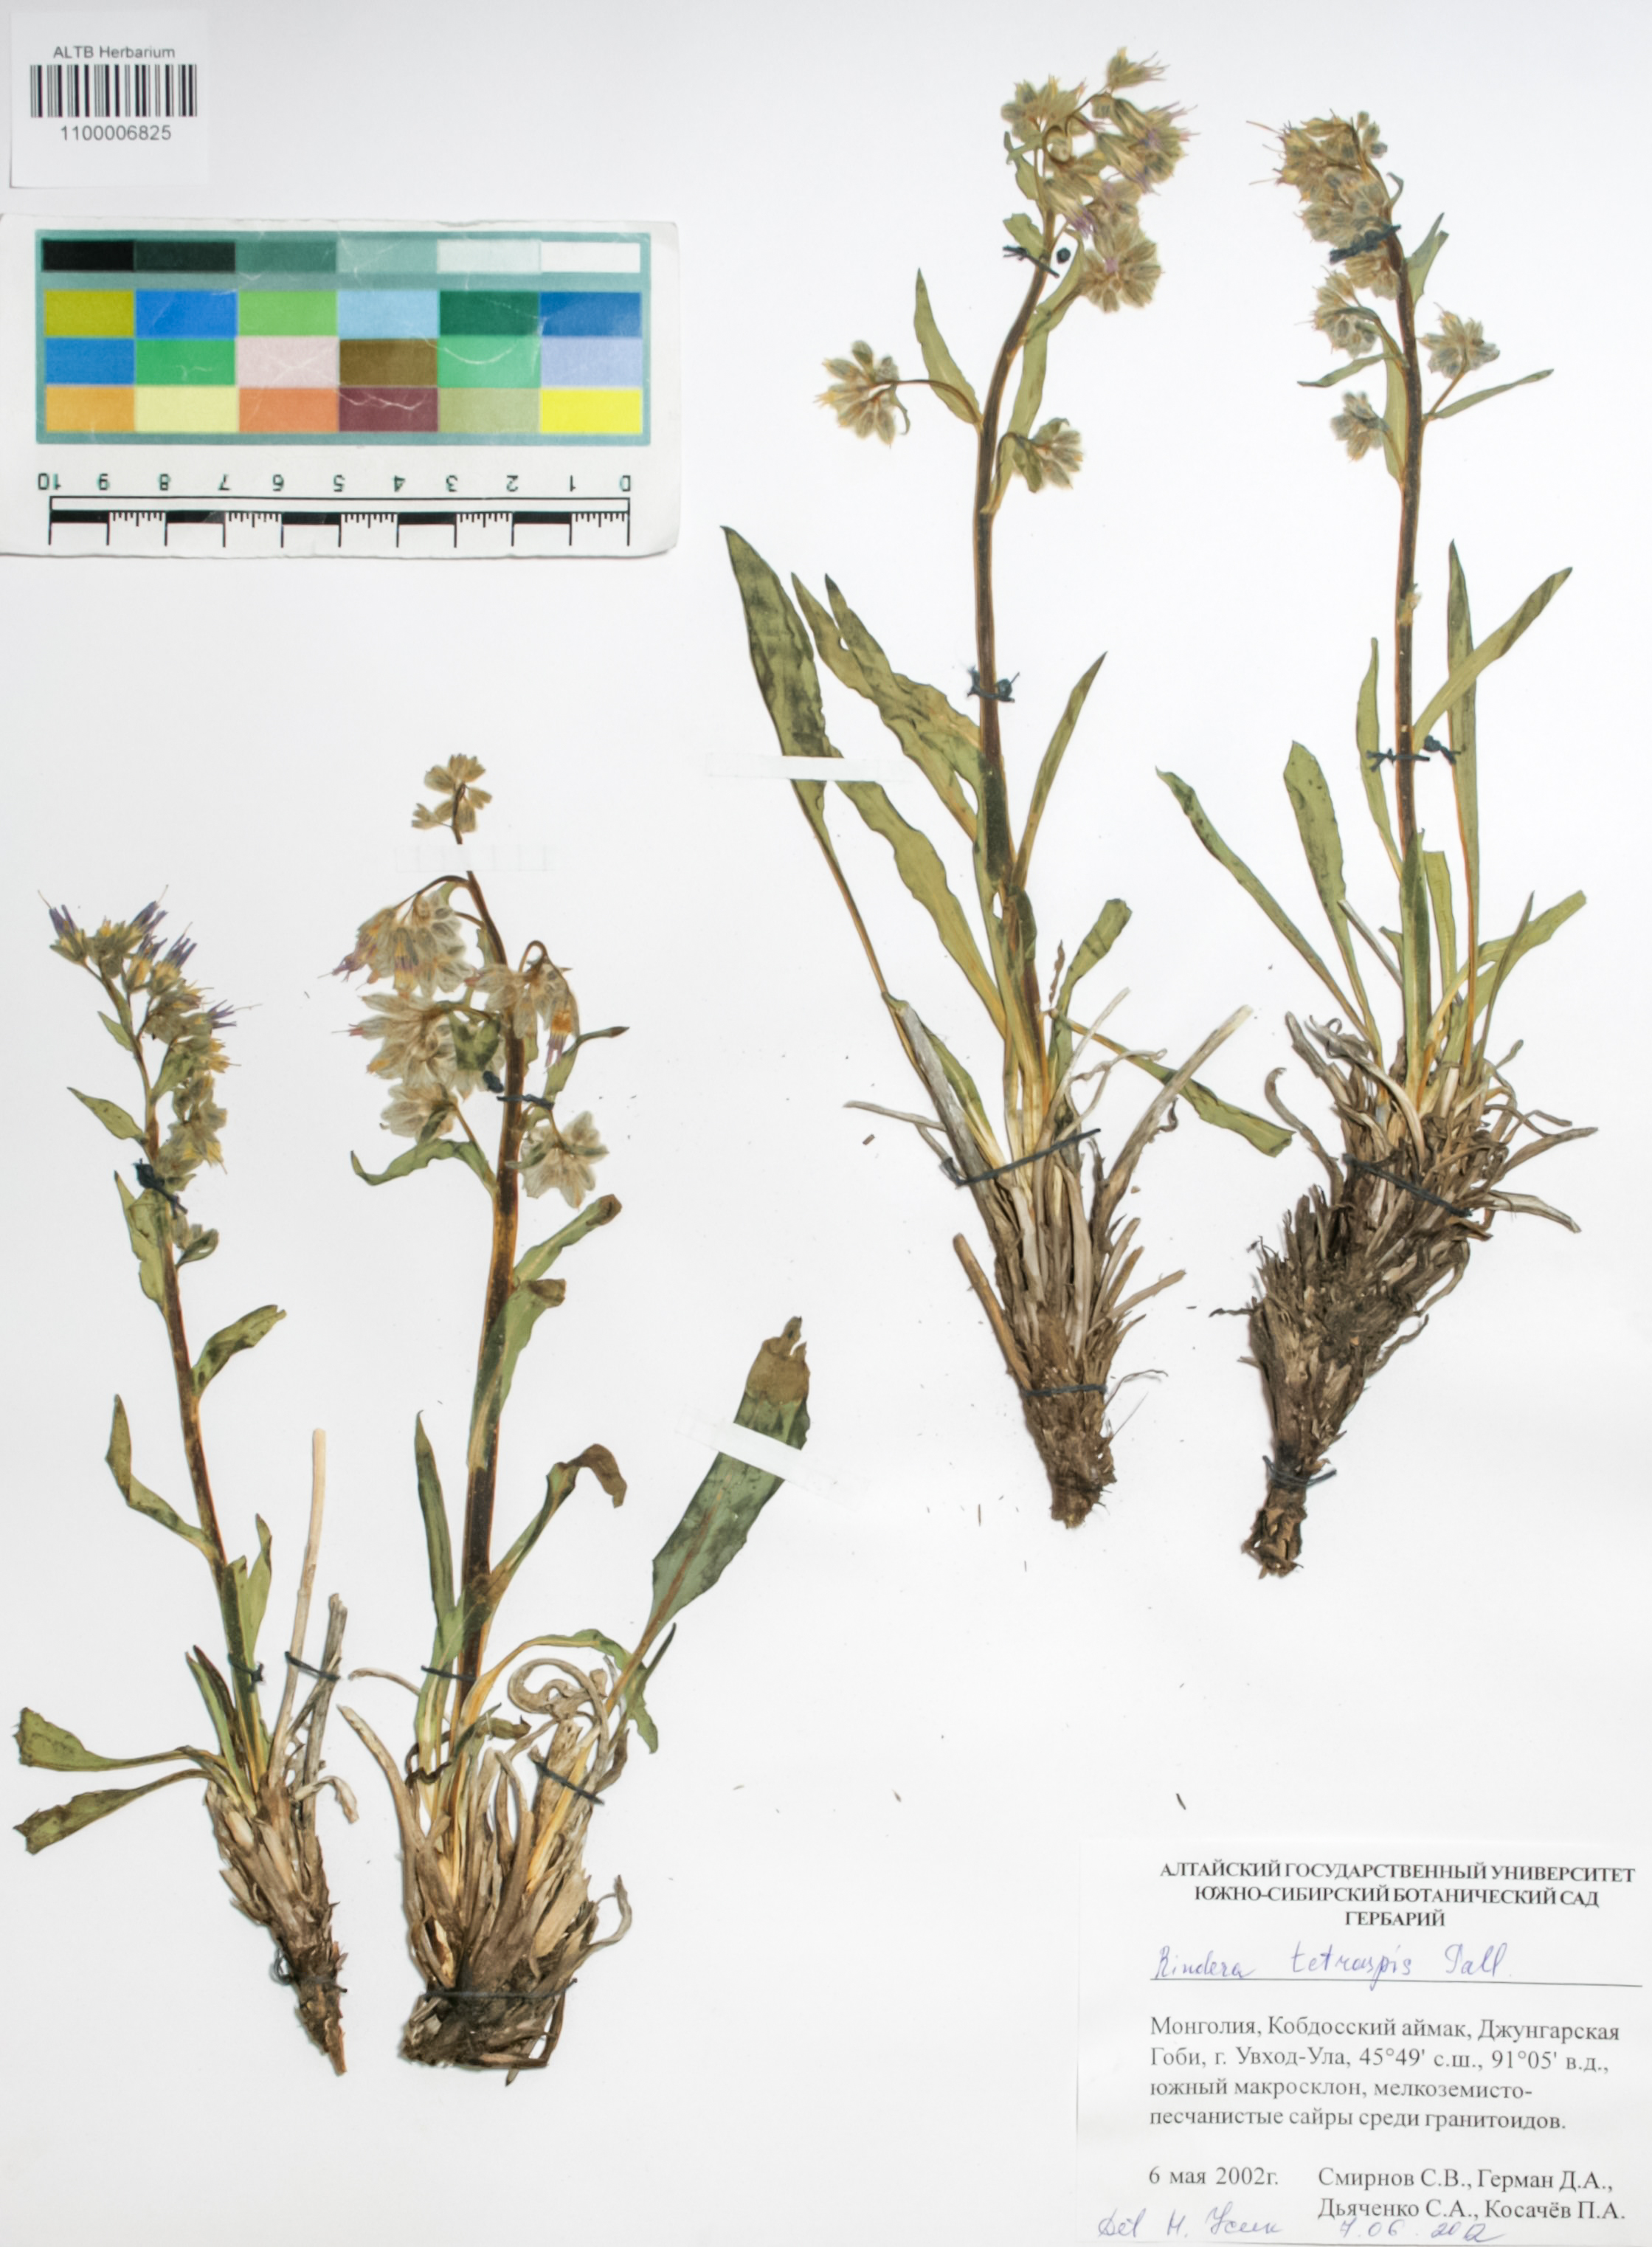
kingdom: Plantae
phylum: Tracheophyta
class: Magnoliopsida
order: Boraginales
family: Boraginaceae
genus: Rindera
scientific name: Rindera tetraspis
